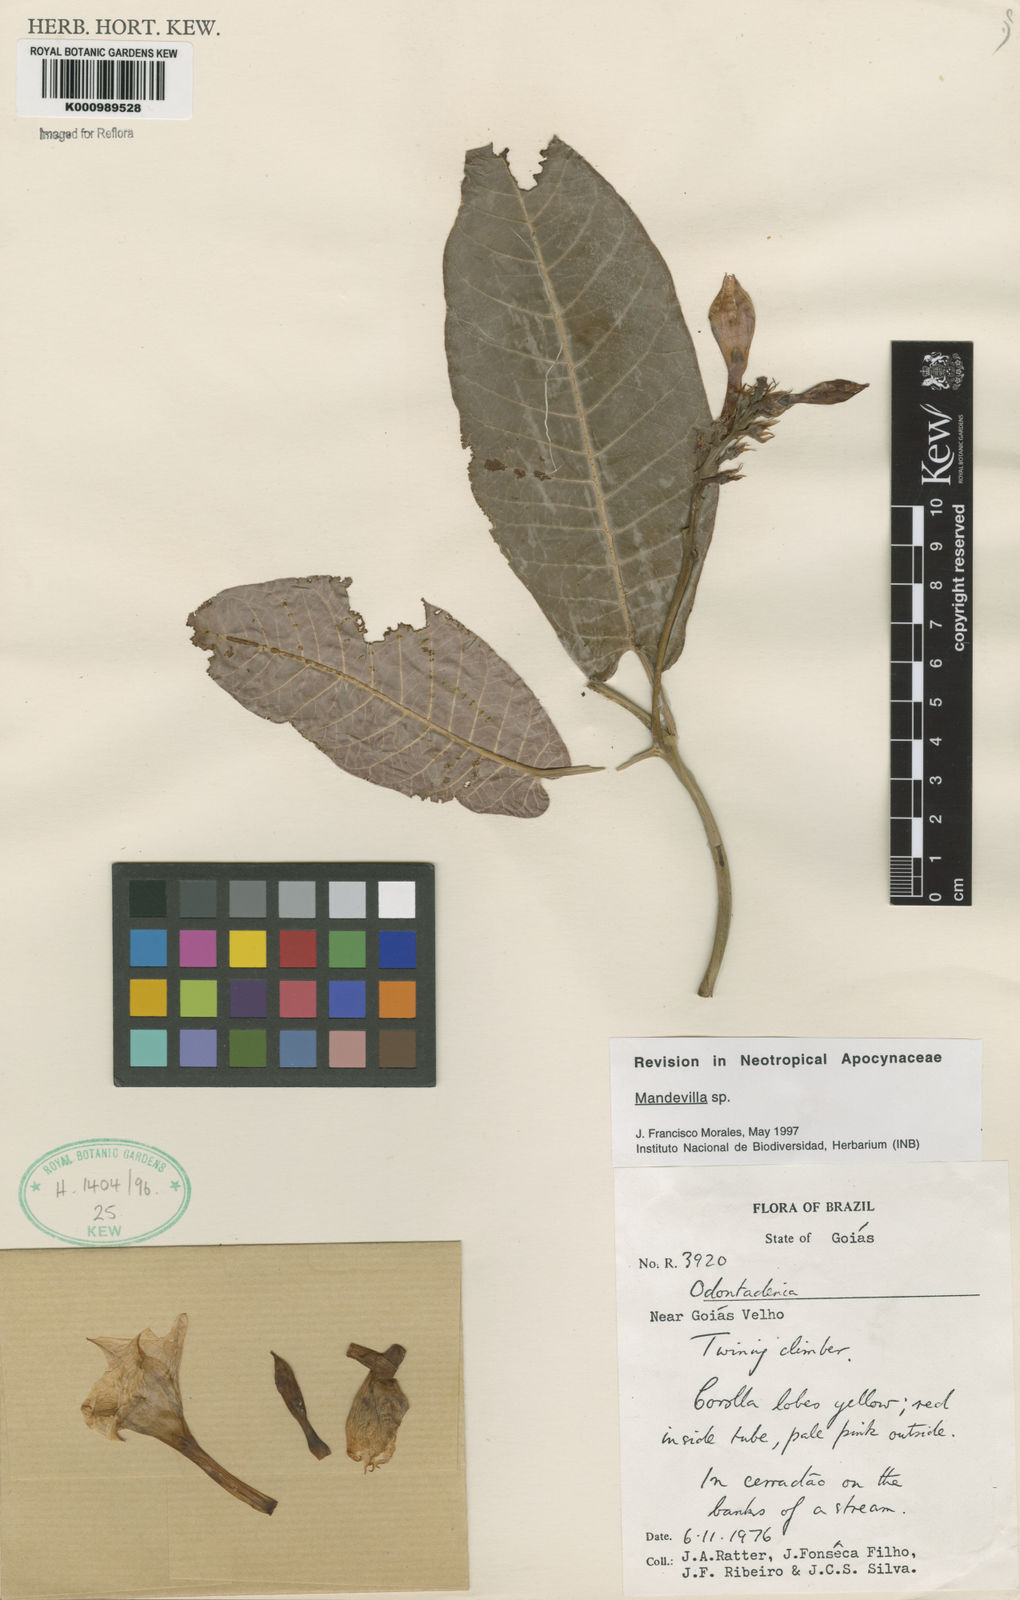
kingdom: Plantae
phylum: Tracheophyta
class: Magnoliopsida
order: Gentianales
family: Apocynaceae
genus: Mandevilla
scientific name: Mandevilla
